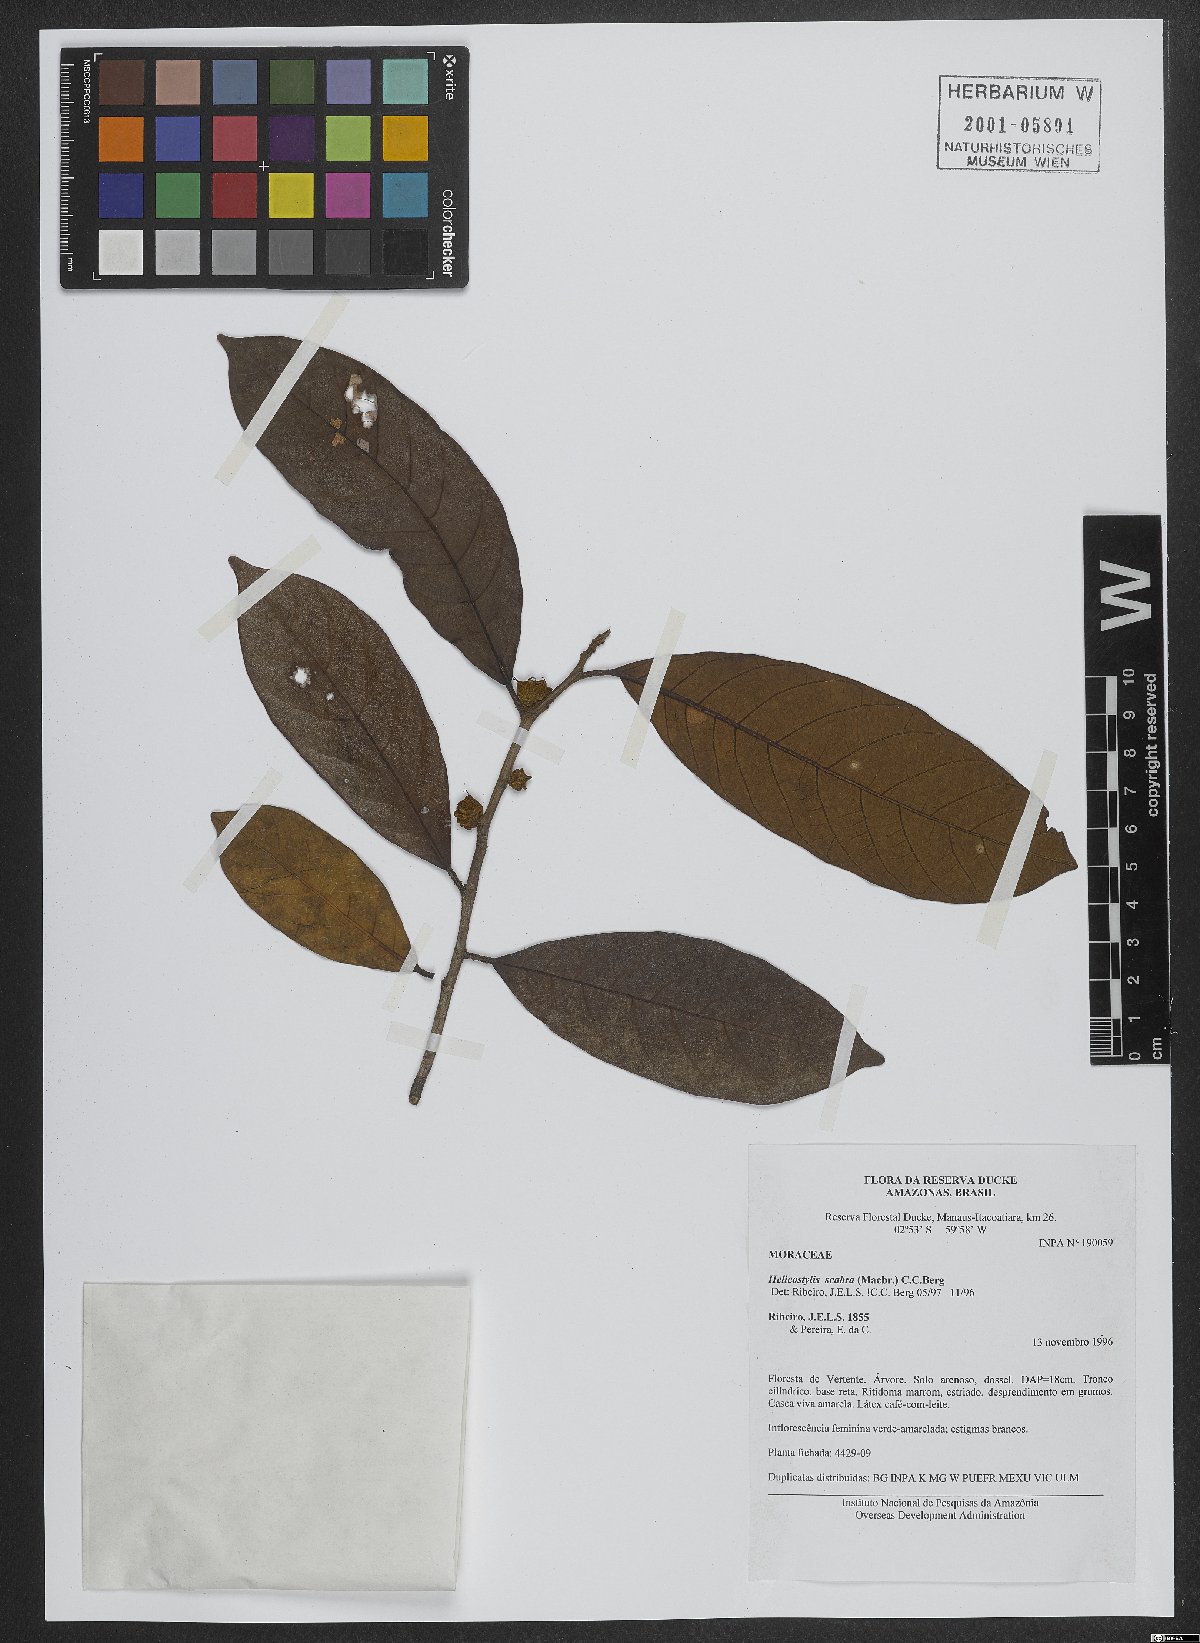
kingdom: Plantae
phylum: Tracheophyta
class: Magnoliopsida
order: Rosales
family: Moraceae
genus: Helicostylis
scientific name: Helicostylis scabra
